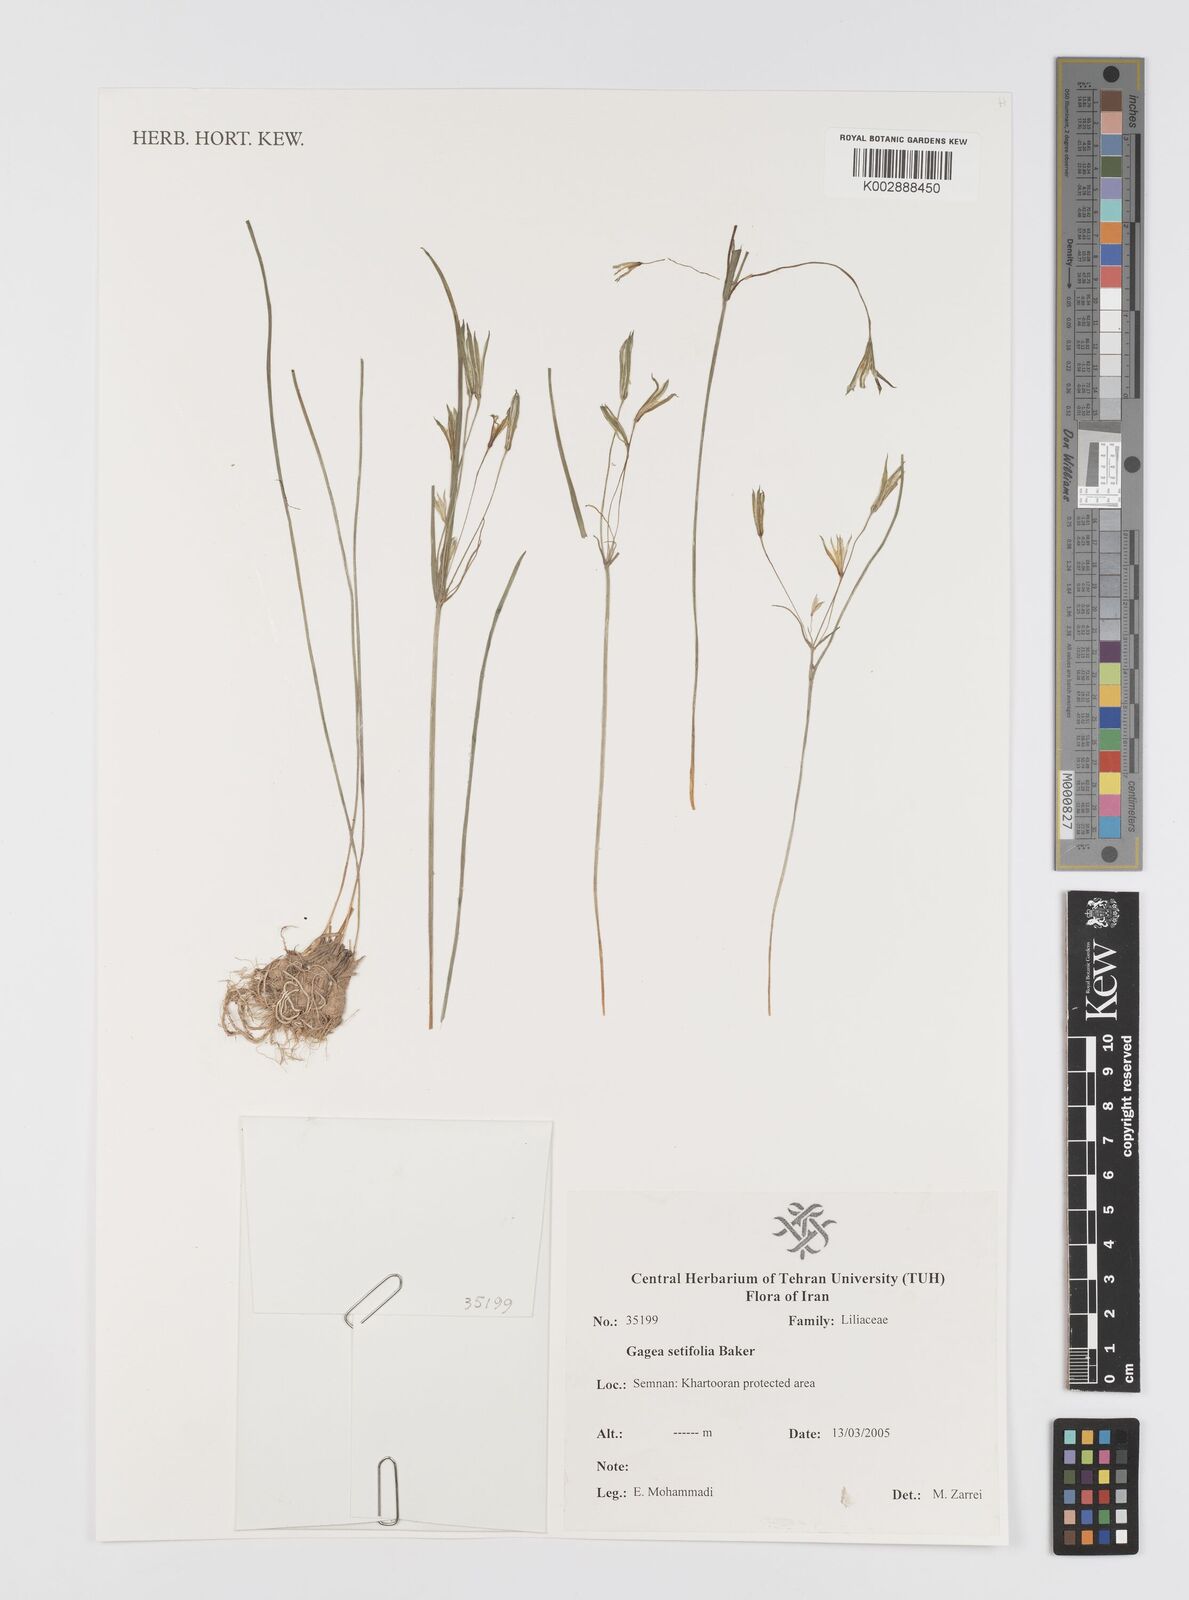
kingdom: Plantae
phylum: Tracheophyta
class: Liliopsida
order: Liliales
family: Liliaceae
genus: Gagea
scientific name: Gagea setifolia
